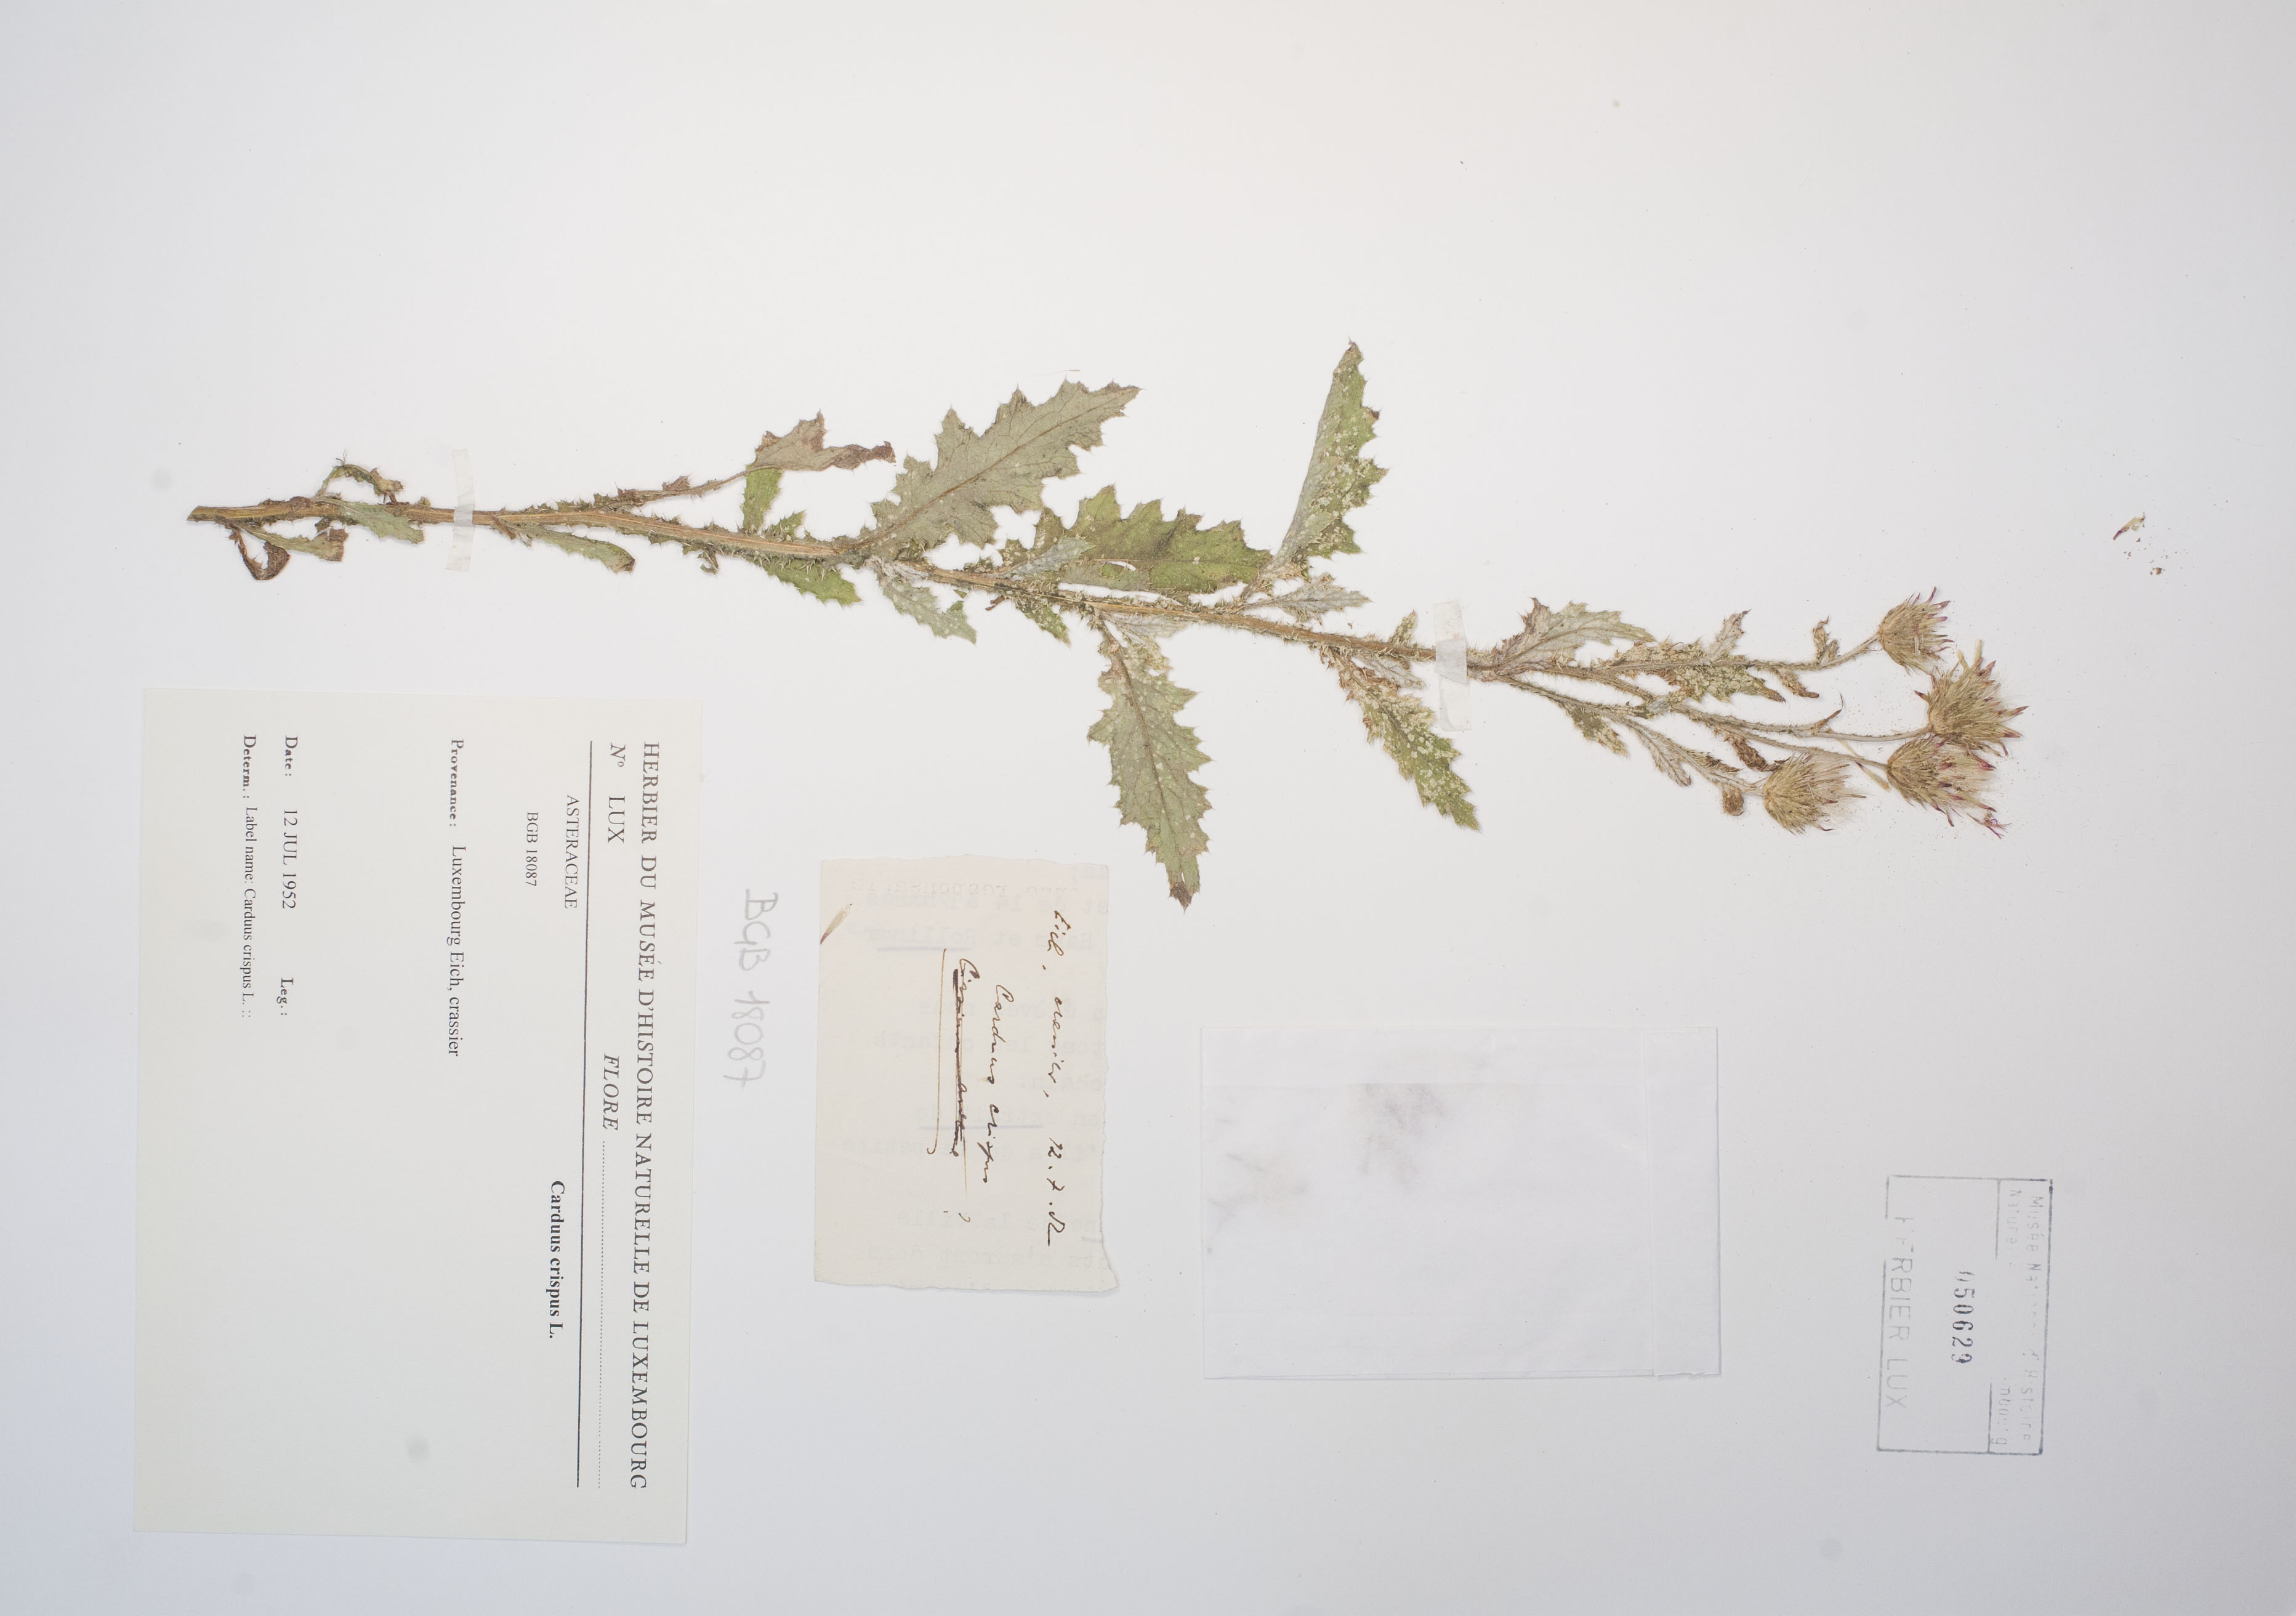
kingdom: Plantae
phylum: Tracheophyta
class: Magnoliopsida
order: Asterales
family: Asteraceae
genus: Carduus
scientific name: Carduus crispus
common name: Welted thistle
